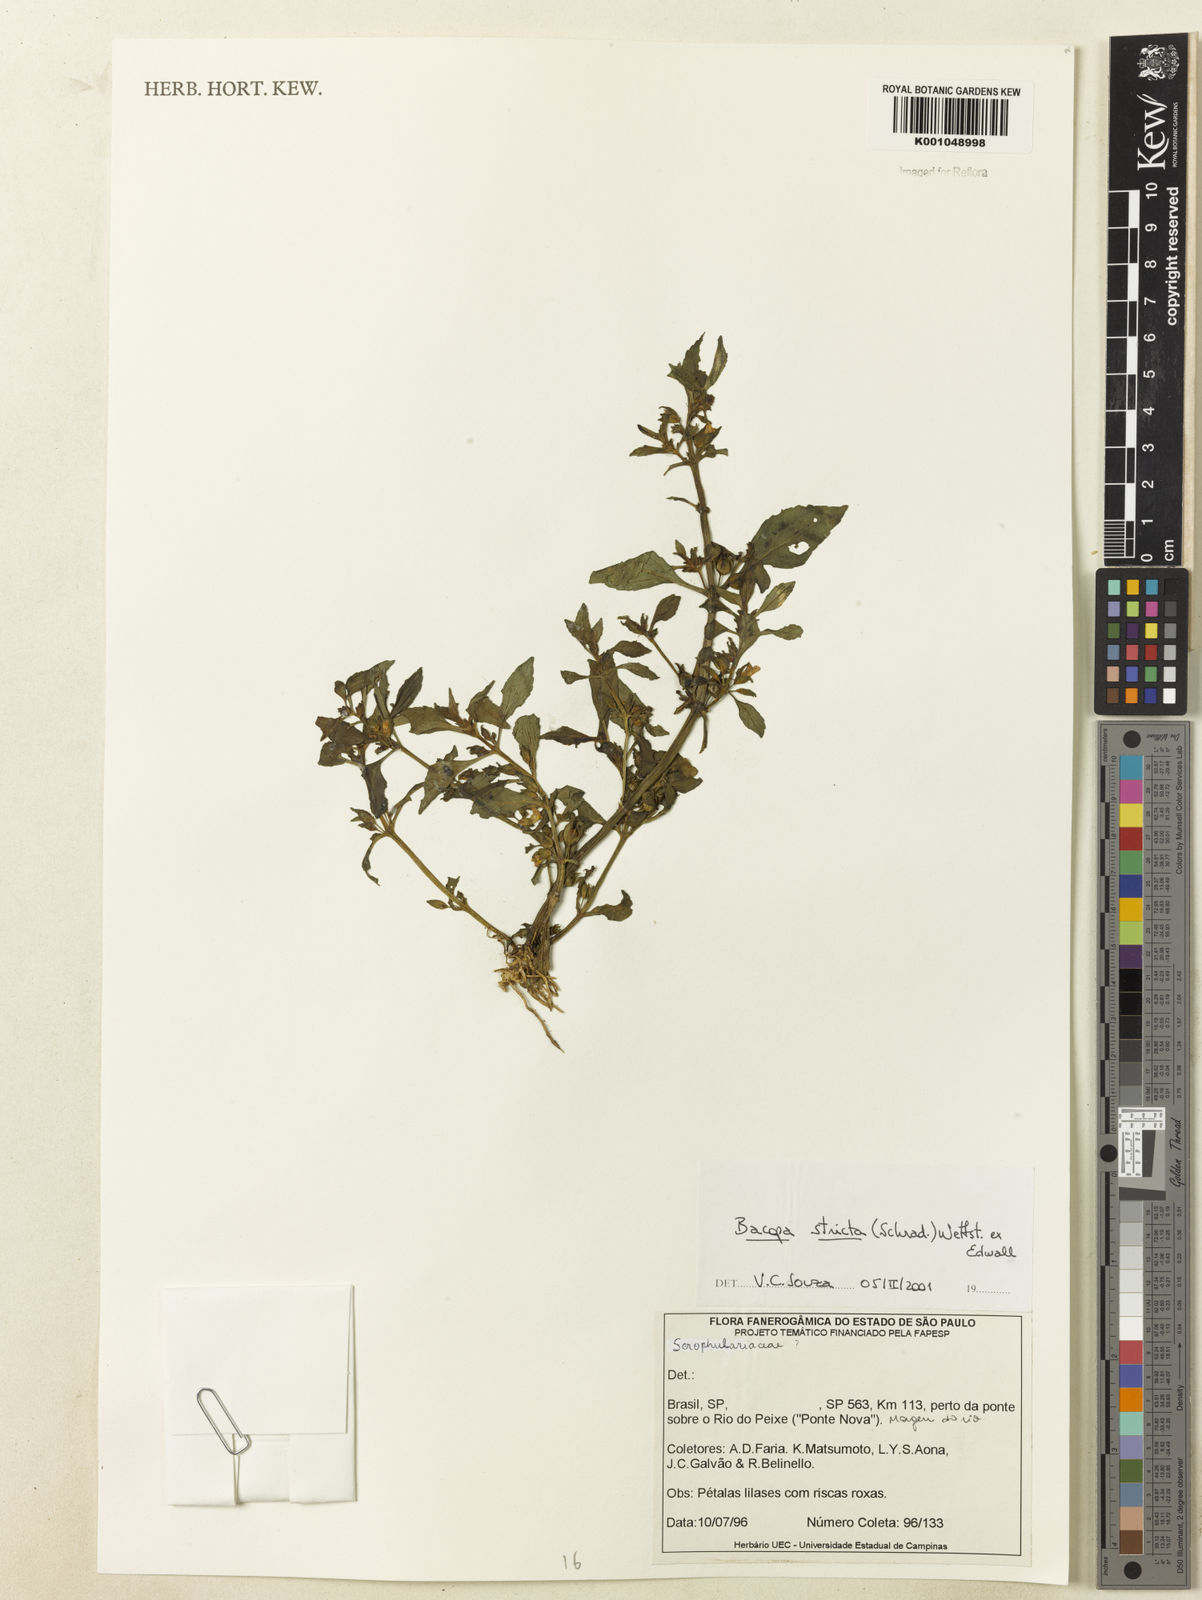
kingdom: Plantae
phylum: Tracheophyta
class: Magnoliopsida
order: Lamiales
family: Plantaginaceae
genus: Bacopa
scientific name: Bacopa stricta
